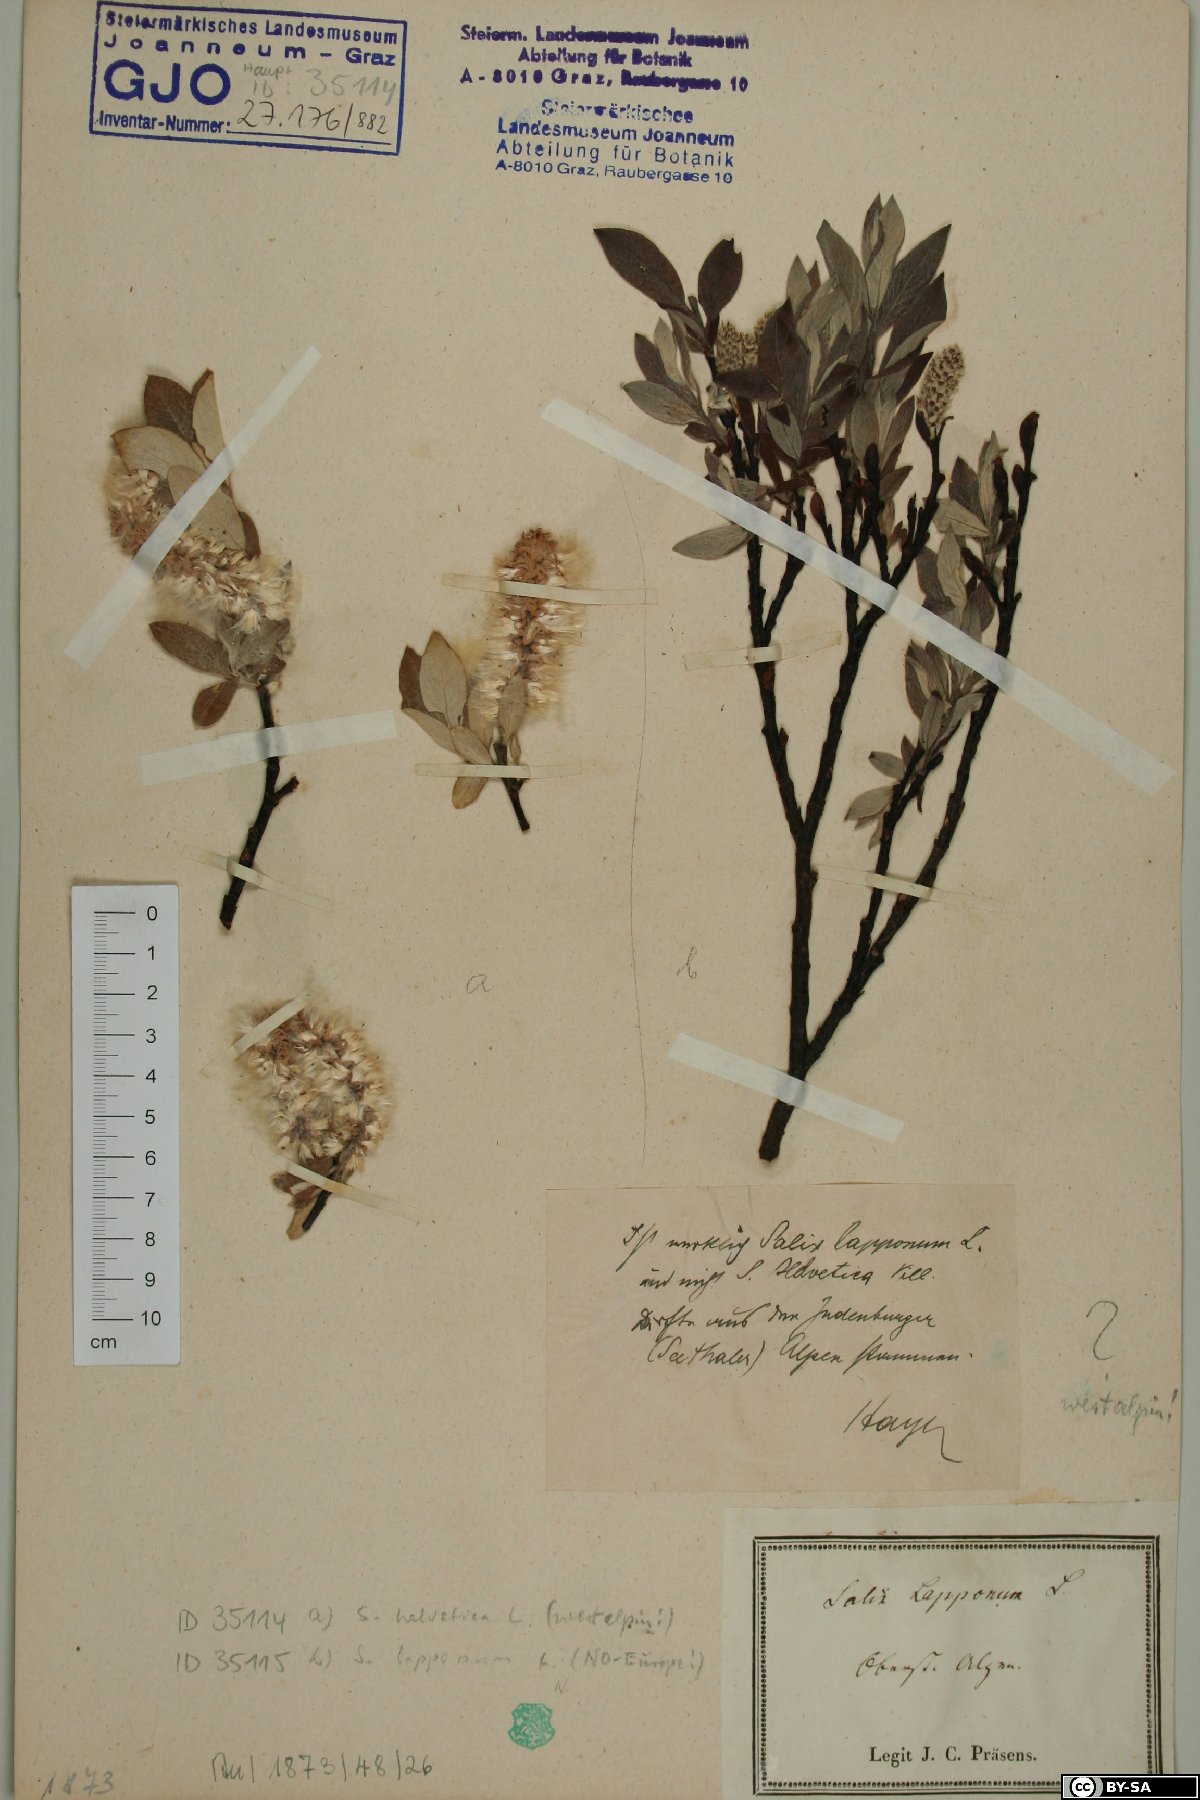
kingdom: Plantae
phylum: Tracheophyta
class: Magnoliopsida
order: Malpighiales
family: Salicaceae
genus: Salix
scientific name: Salix helvetica
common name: Swiss willow
